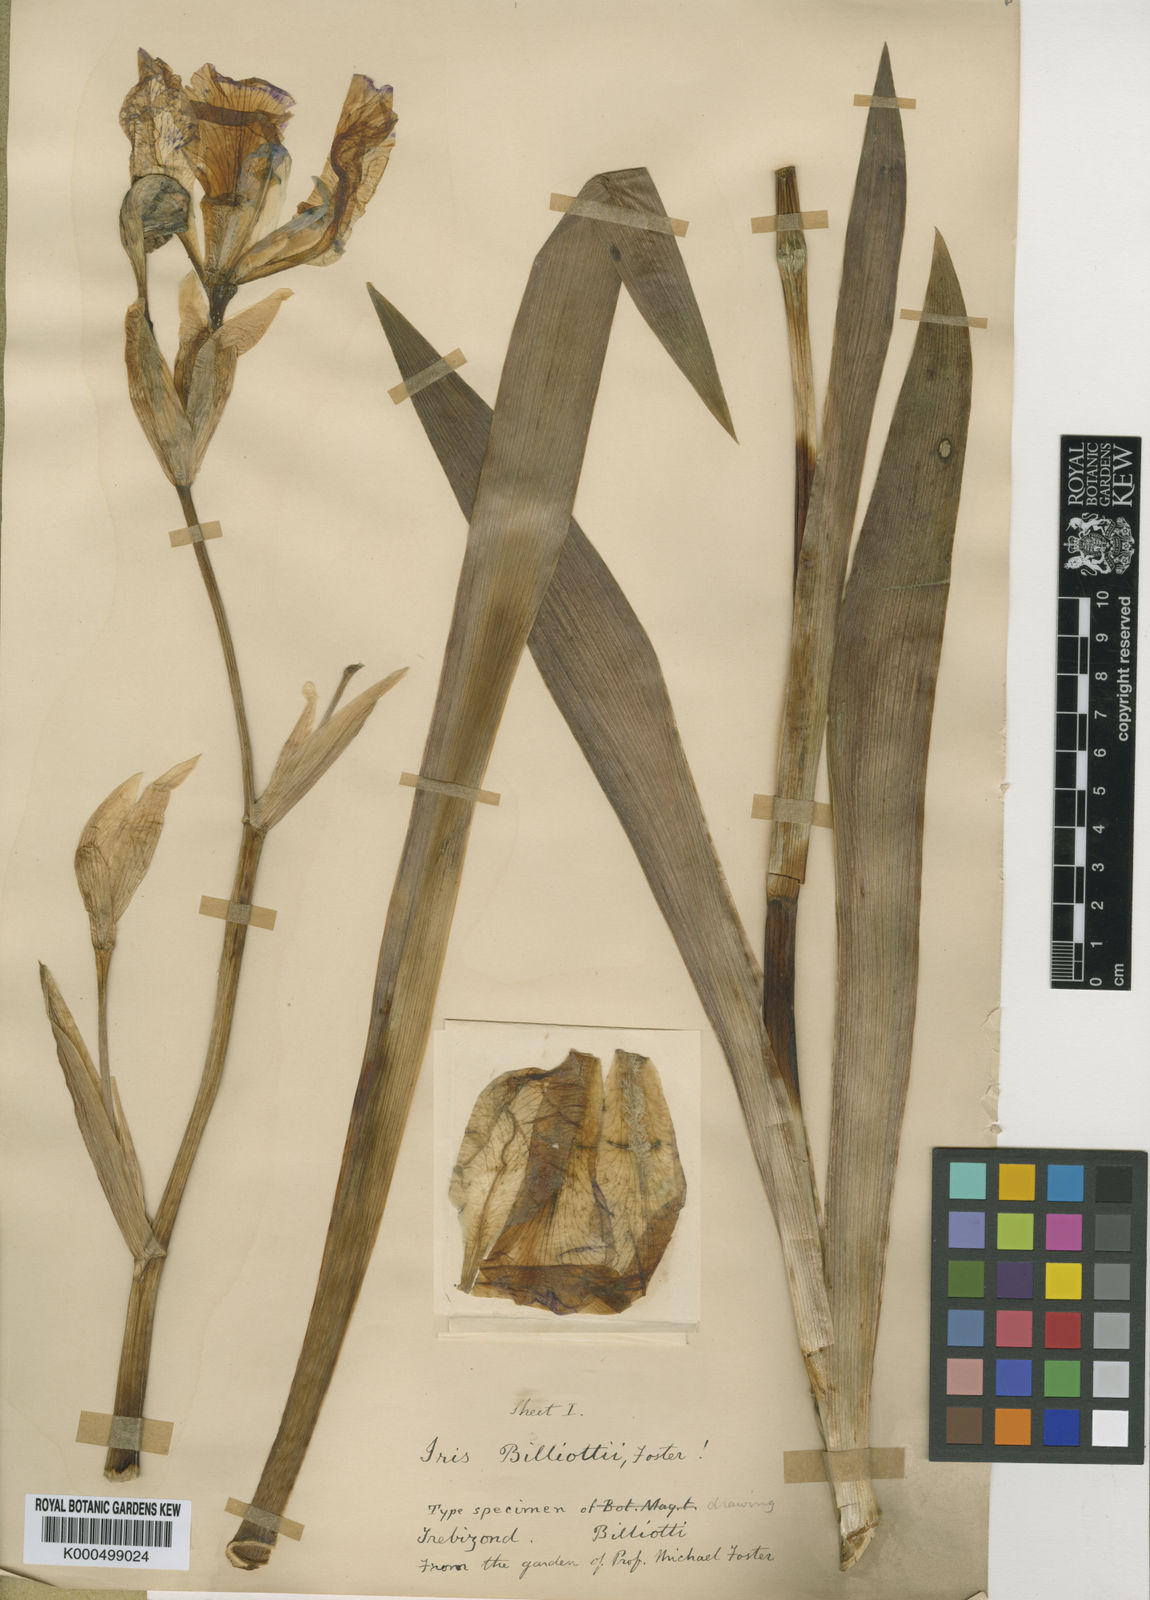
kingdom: Plantae
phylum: Tracheophyta
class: Liliopsida
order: Asparagales
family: Iridaceae
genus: Iris
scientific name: Iris germanica
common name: German iris
